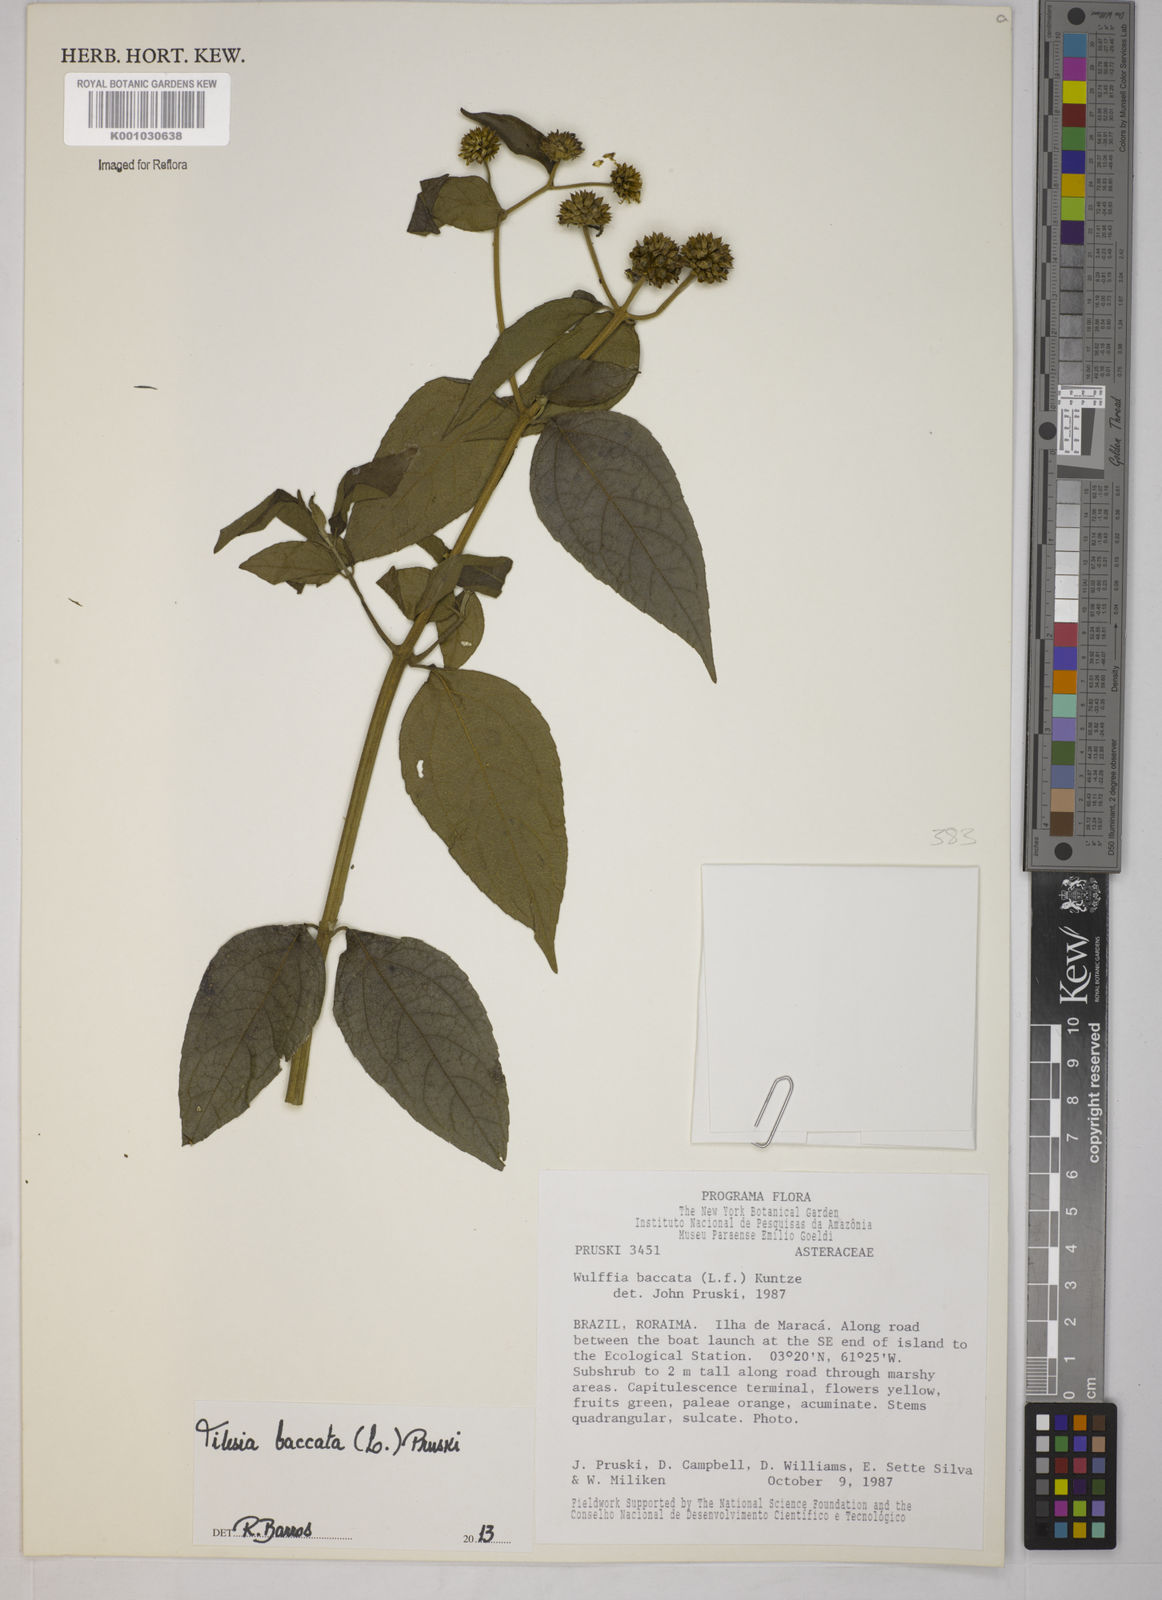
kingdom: Plantae
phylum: Tracheophyta
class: Magnoliopsida
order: Asterales
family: Asteraceae
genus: Tilesia
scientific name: Tilesia baccata
